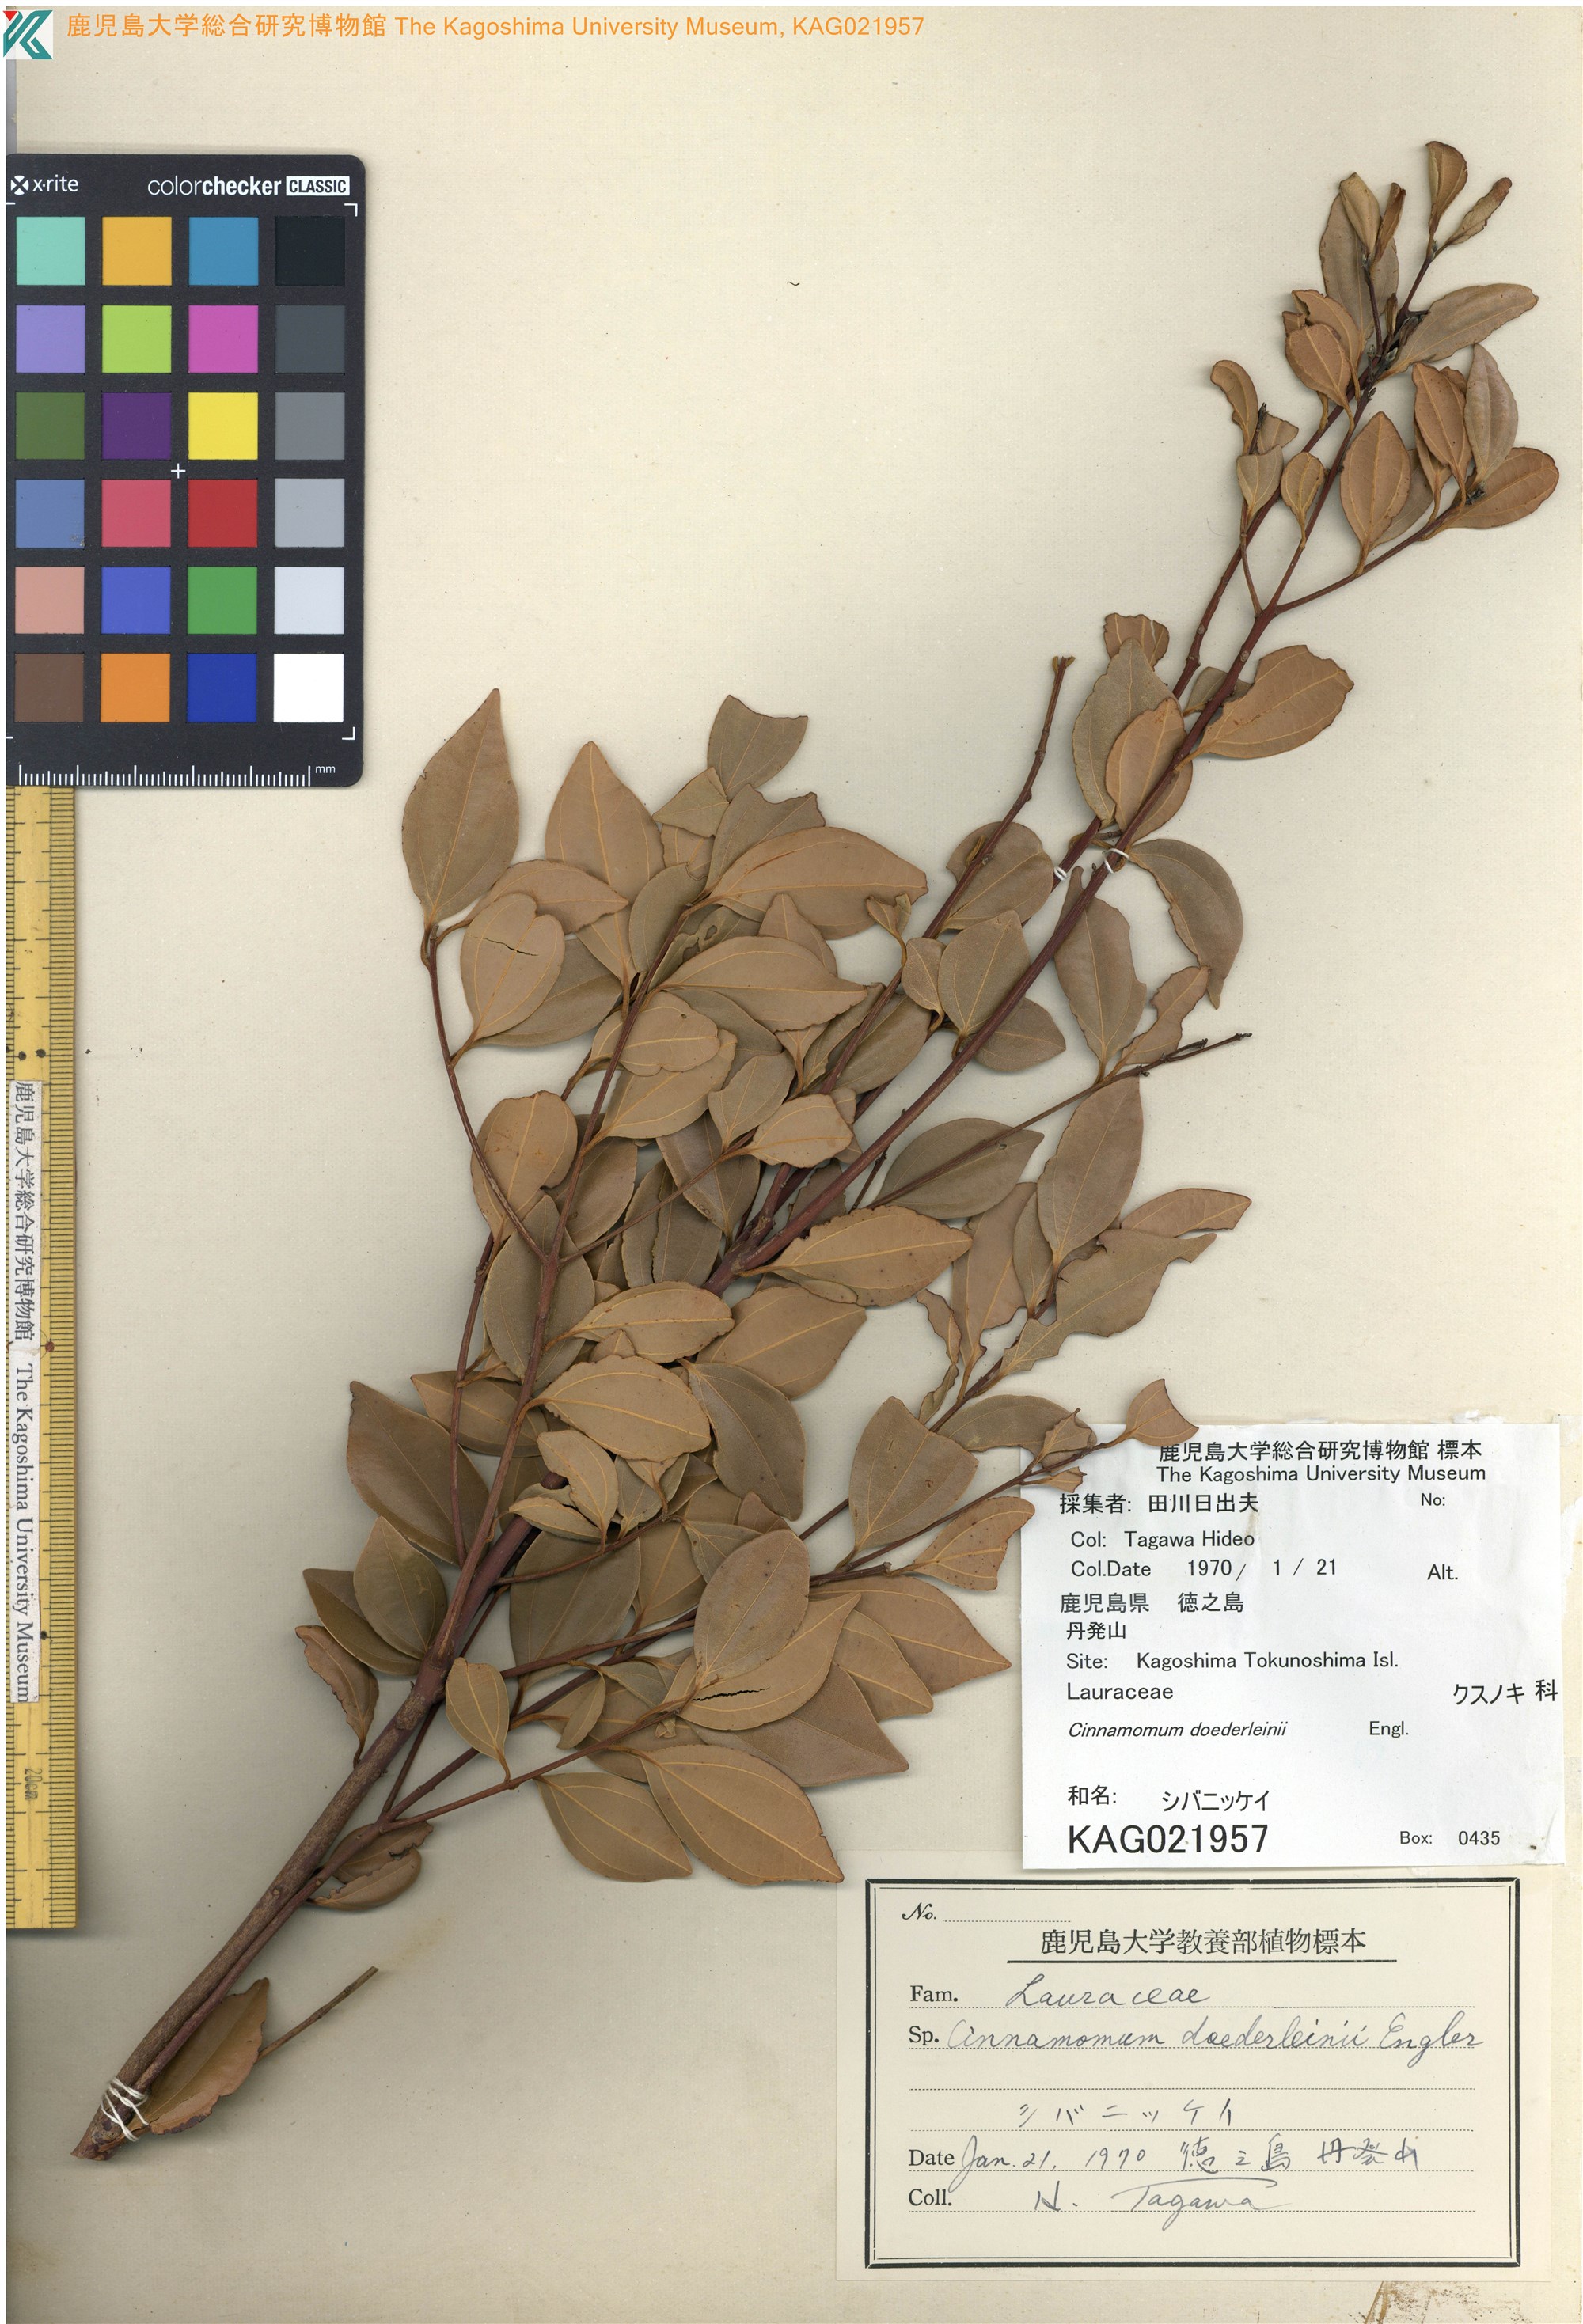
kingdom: Plantae
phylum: Tracheophyta
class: Magnoliopsida
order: Laurales
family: Lauraceae
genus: Cinnamomum
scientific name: Cinnamomum doederleinii
